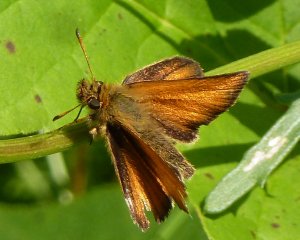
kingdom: Animalia
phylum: Arthropoda
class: Insecta
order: Lepidoptera
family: Hesperiidae
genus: Thymelicus
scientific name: Thymelicus lineola
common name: European Skipper
